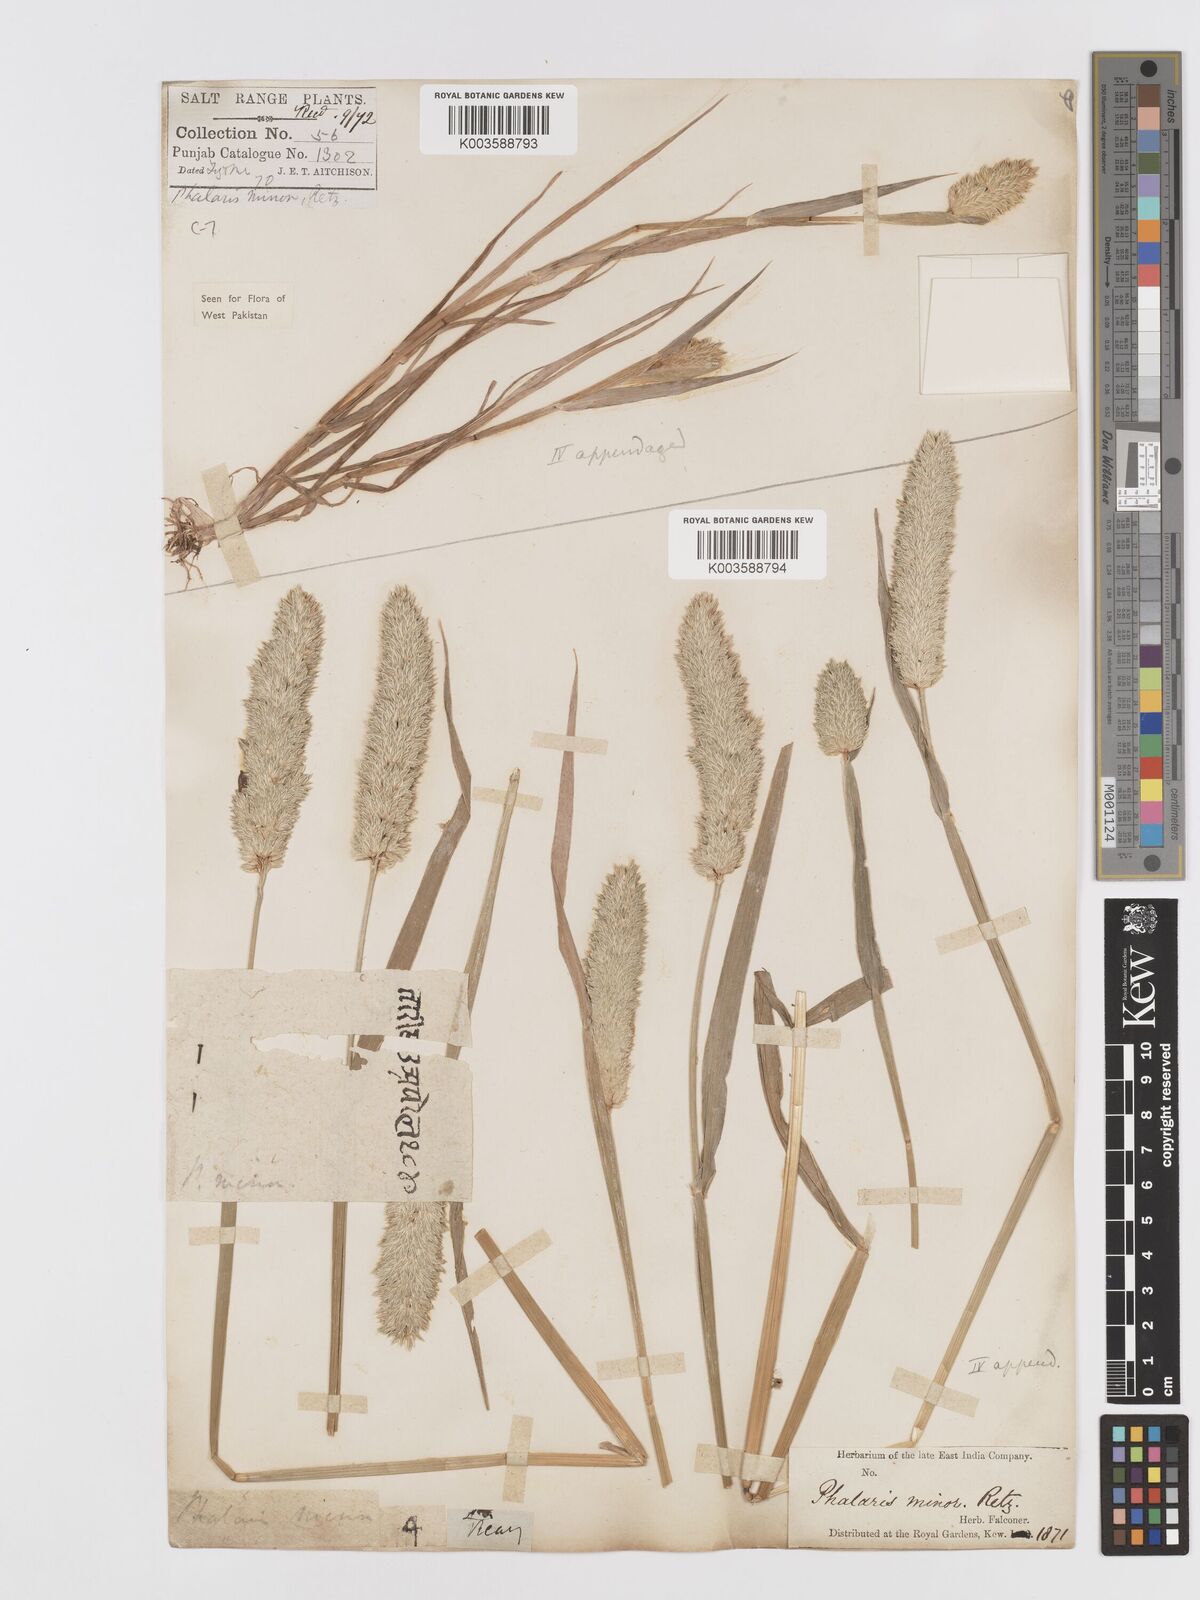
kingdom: Plantae
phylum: Tracheophyta
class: Liliopsida
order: Poales
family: Poaceae
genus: Phalaris
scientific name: Phalaris minor
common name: Littleseed canarygrass
